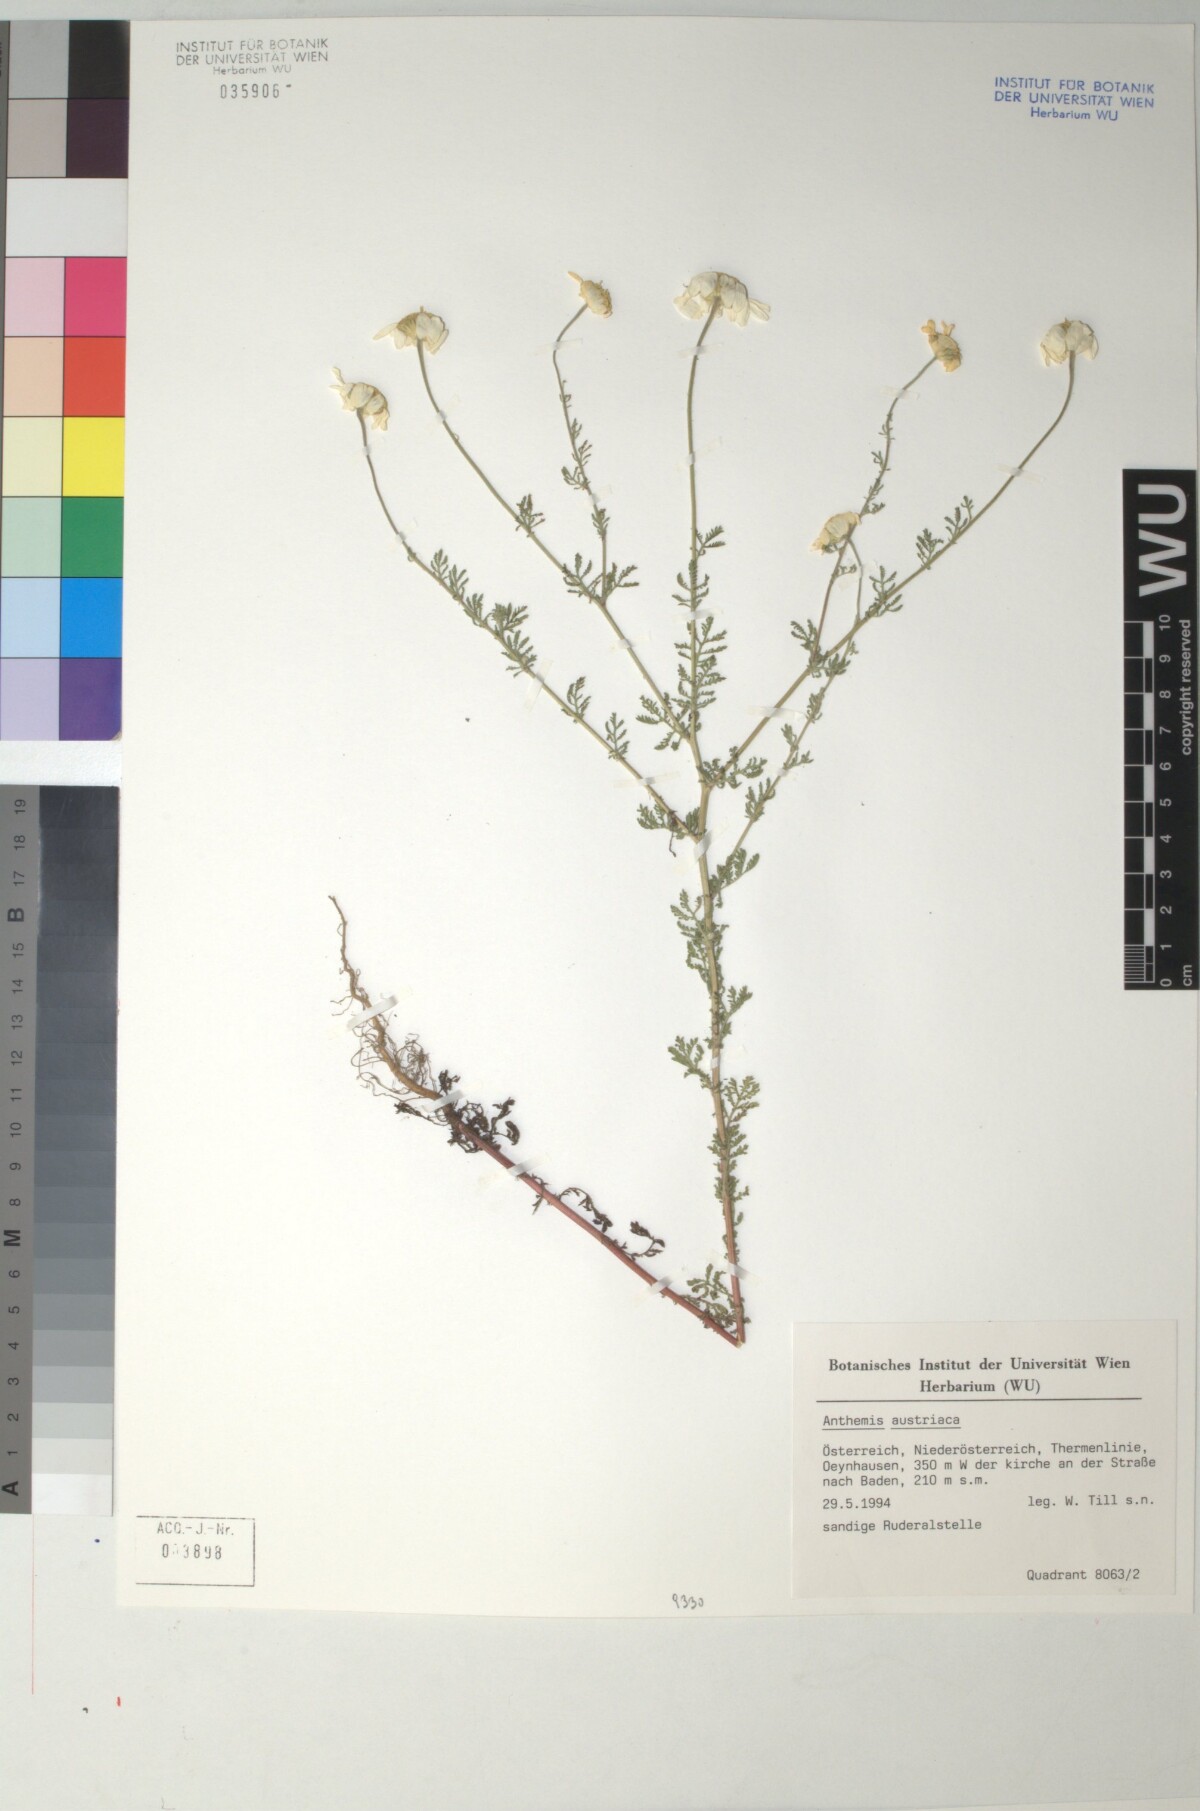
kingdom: Plantae
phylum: Tracheophyta
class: Magnoliopsida
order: Asterales
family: Asteraceae
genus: Cota
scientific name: Cota austriaca
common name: Austrian chamomile
